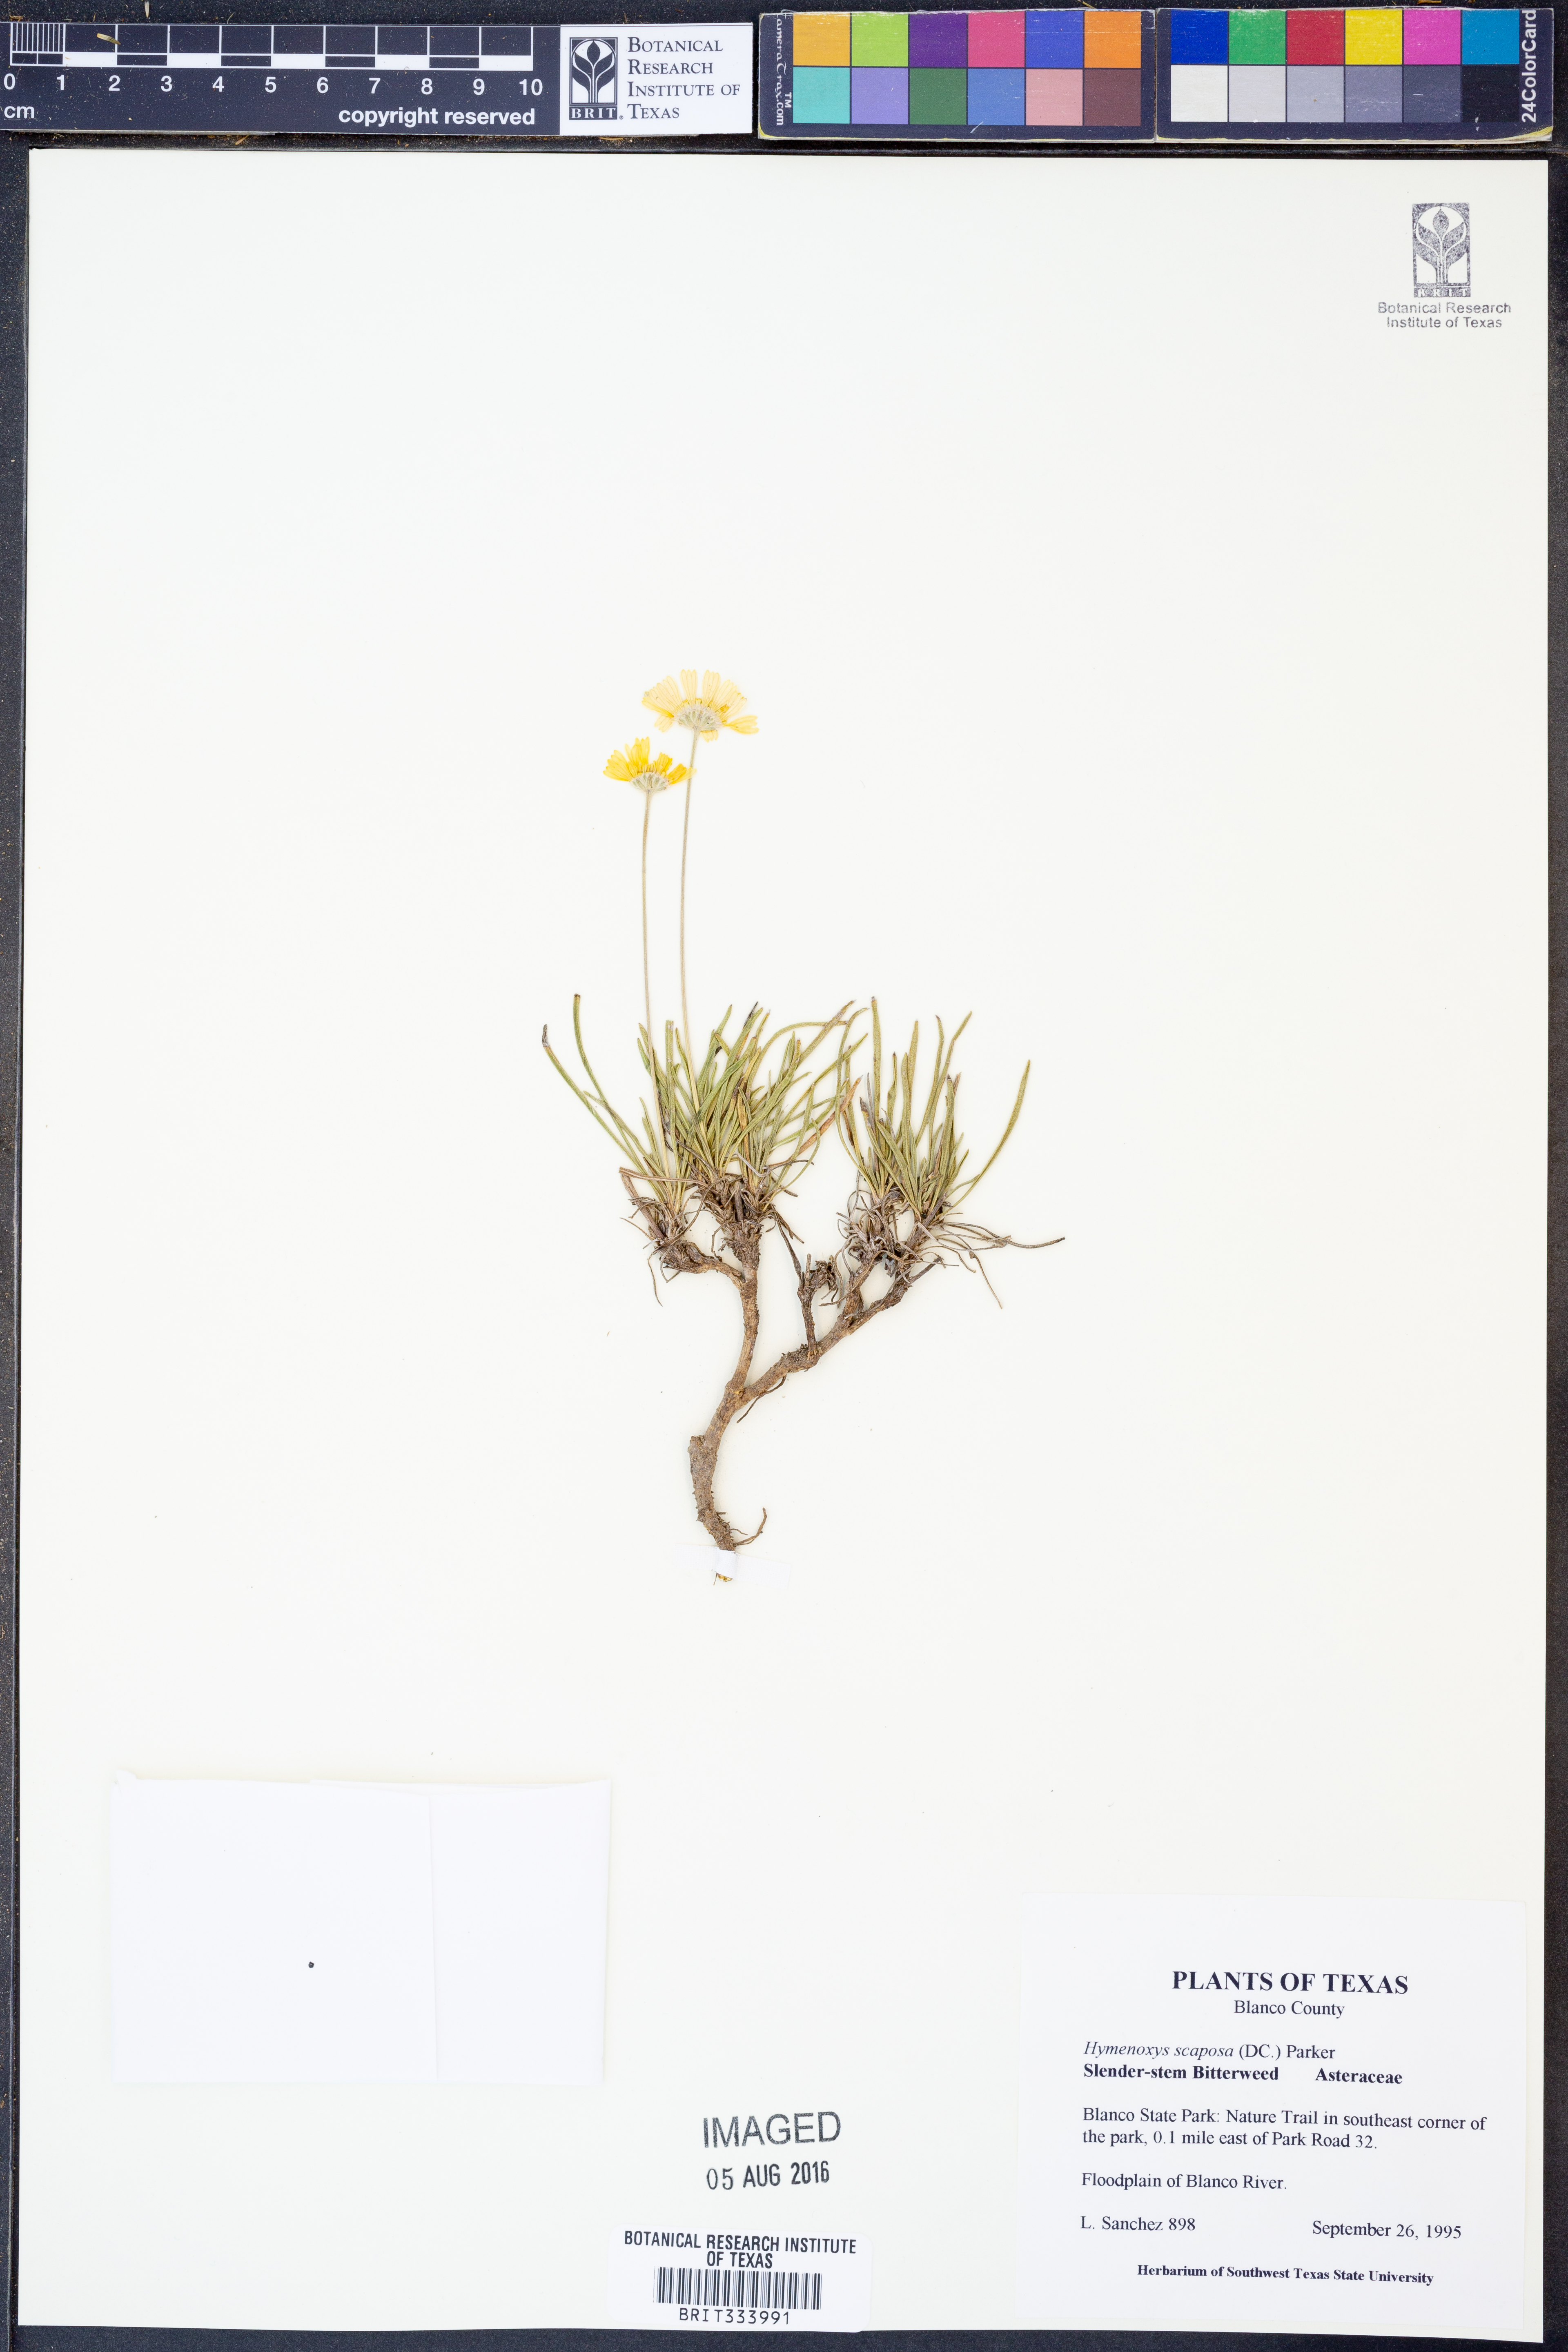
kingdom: Plantae
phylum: Tracheophyta
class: Magnoliopsida
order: Asterales
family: Asteraceae
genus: Tetraneuris
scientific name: Tetraneuris scaposa
